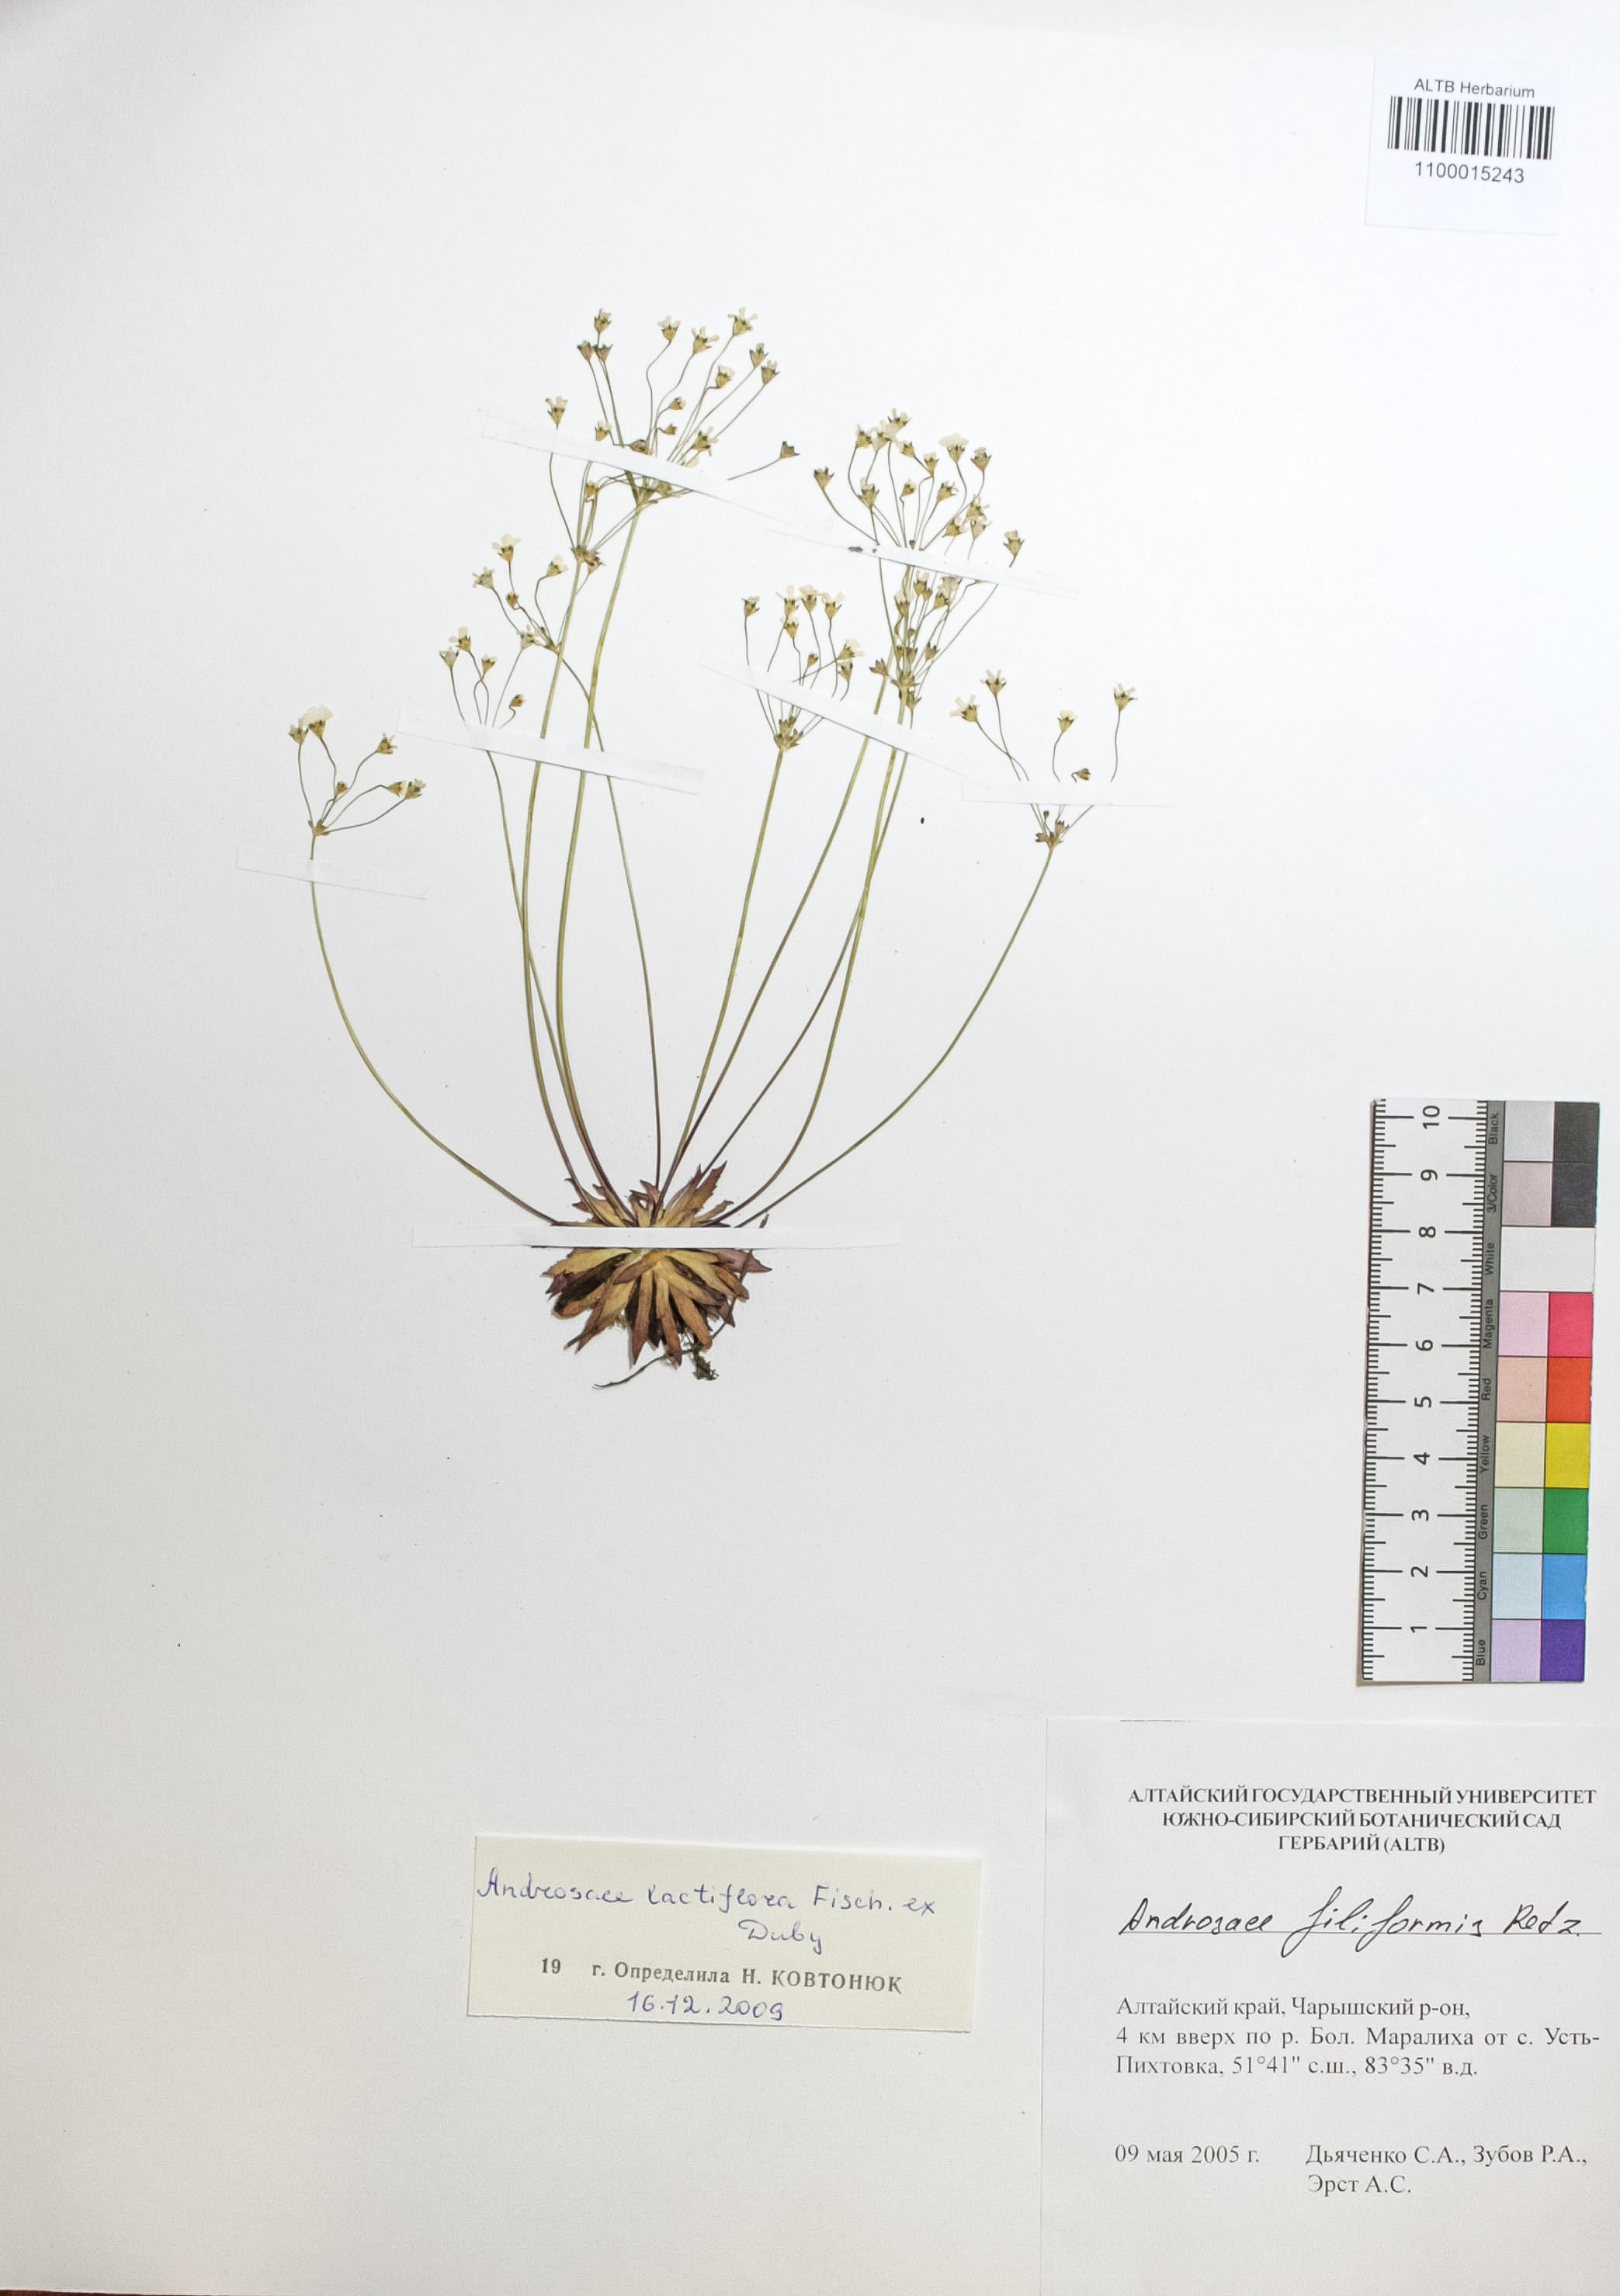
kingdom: Plantae
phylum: Tracheophyta
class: Magnoliopsida
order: Ericales
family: Primulaceae
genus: Androsace
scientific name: Androsace lactiflora
